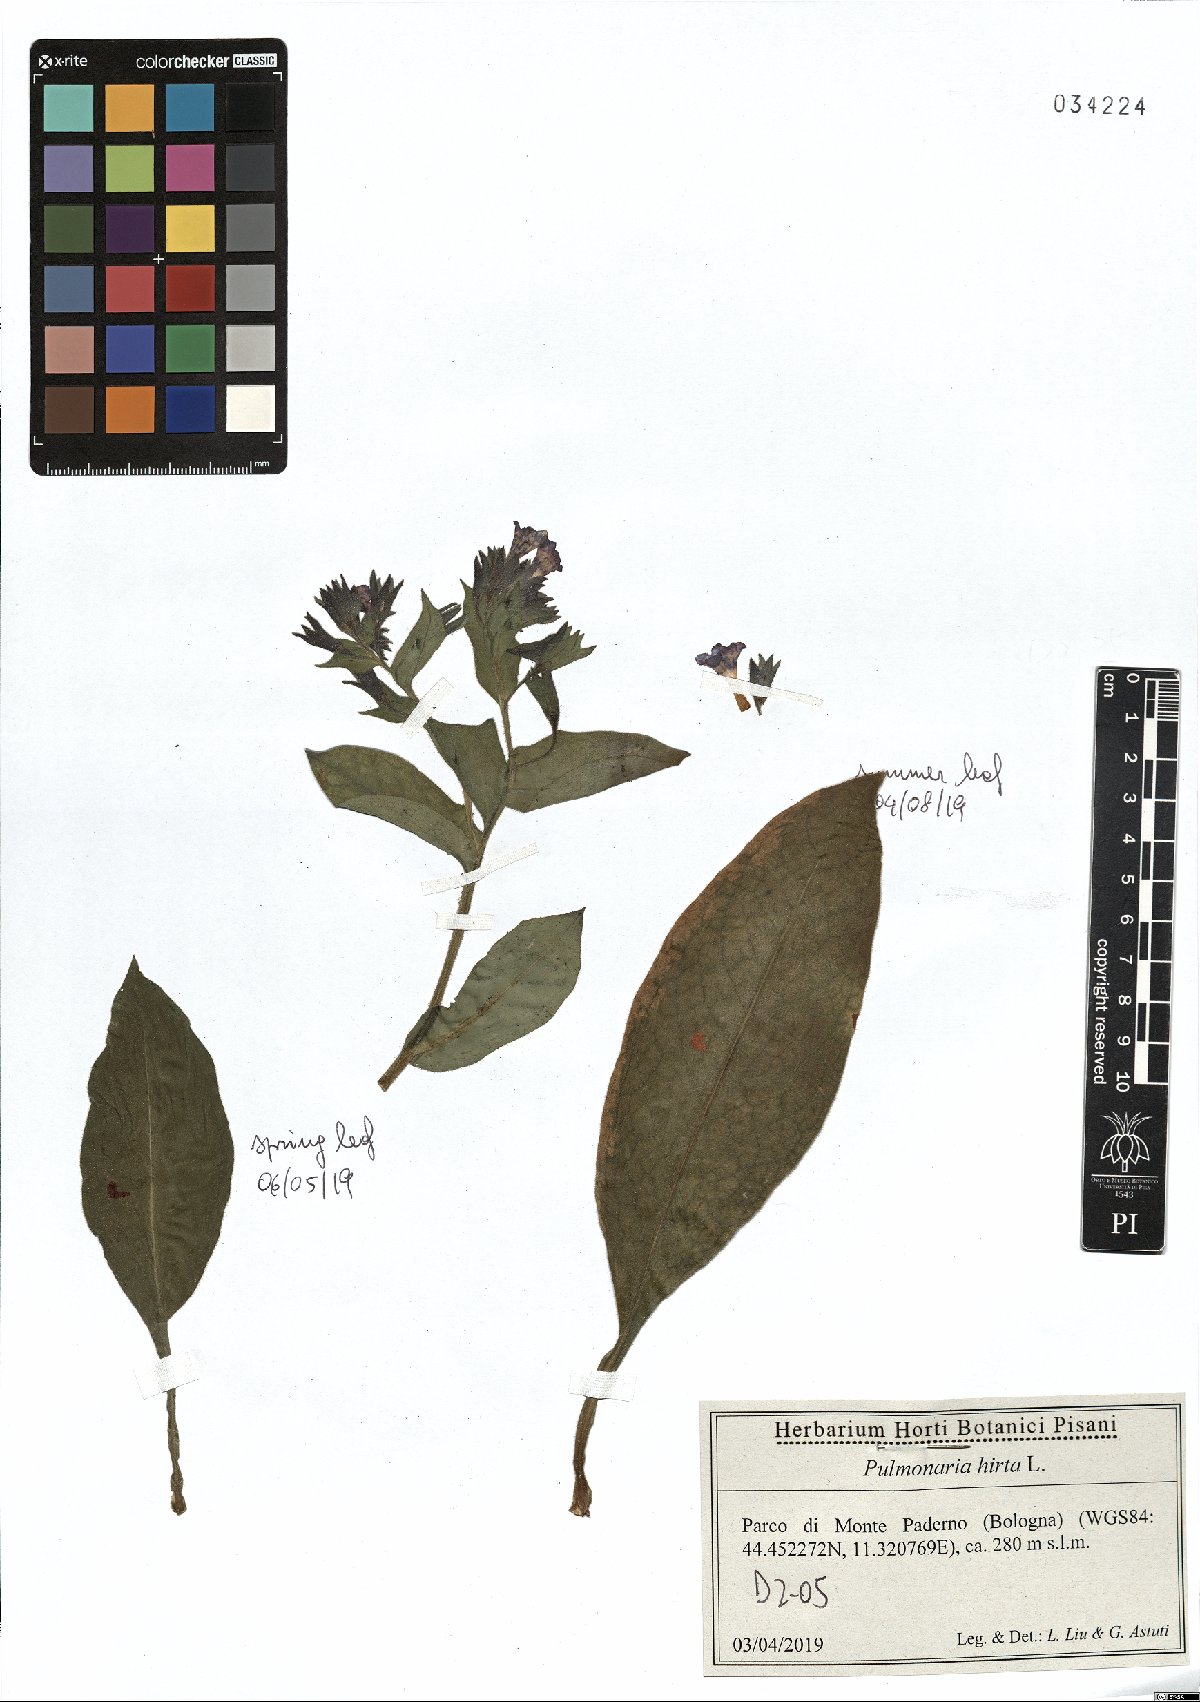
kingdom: Plantae
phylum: Tracheophyta
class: Magnoliopsida
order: Boraginales
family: Boraginaceae
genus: Pulmonaria
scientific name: Pulmonaria hirta
